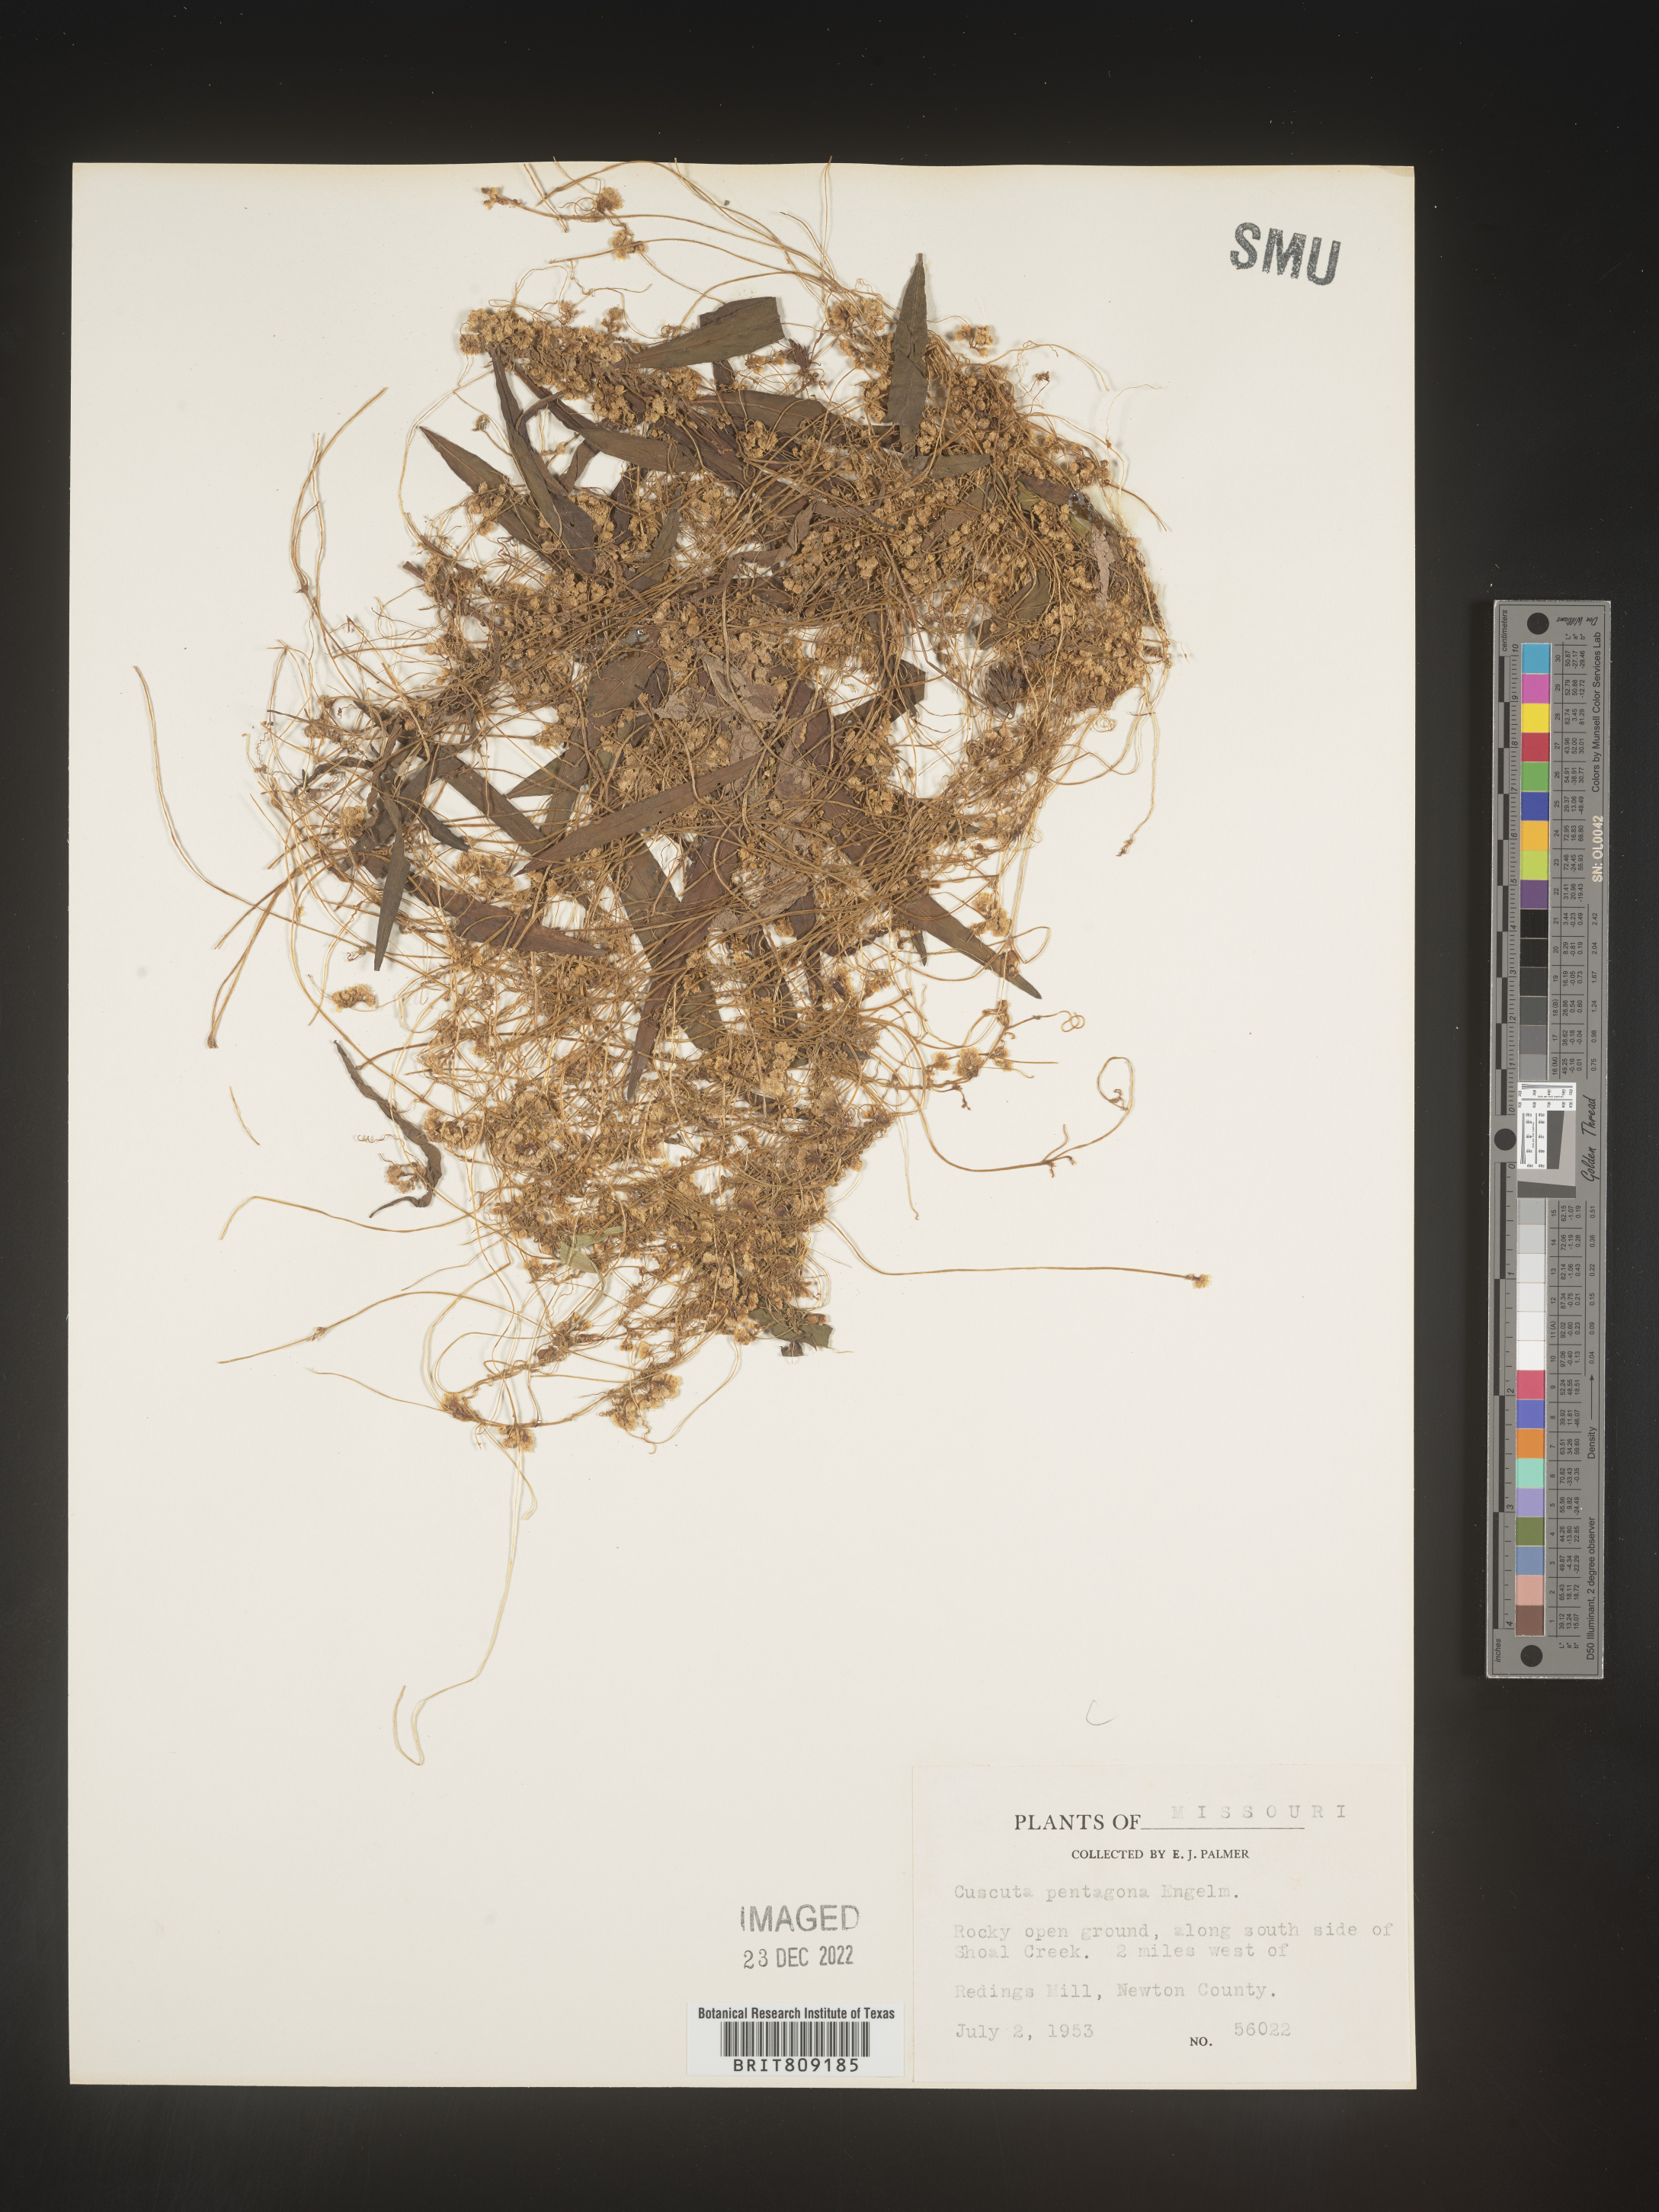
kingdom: Plantae
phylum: Tracheophyta
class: Magnoliopsida
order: Solanales
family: Convolvulaceae
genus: Cuscuta
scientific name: Cuscuta campestris
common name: Yellow dodder
